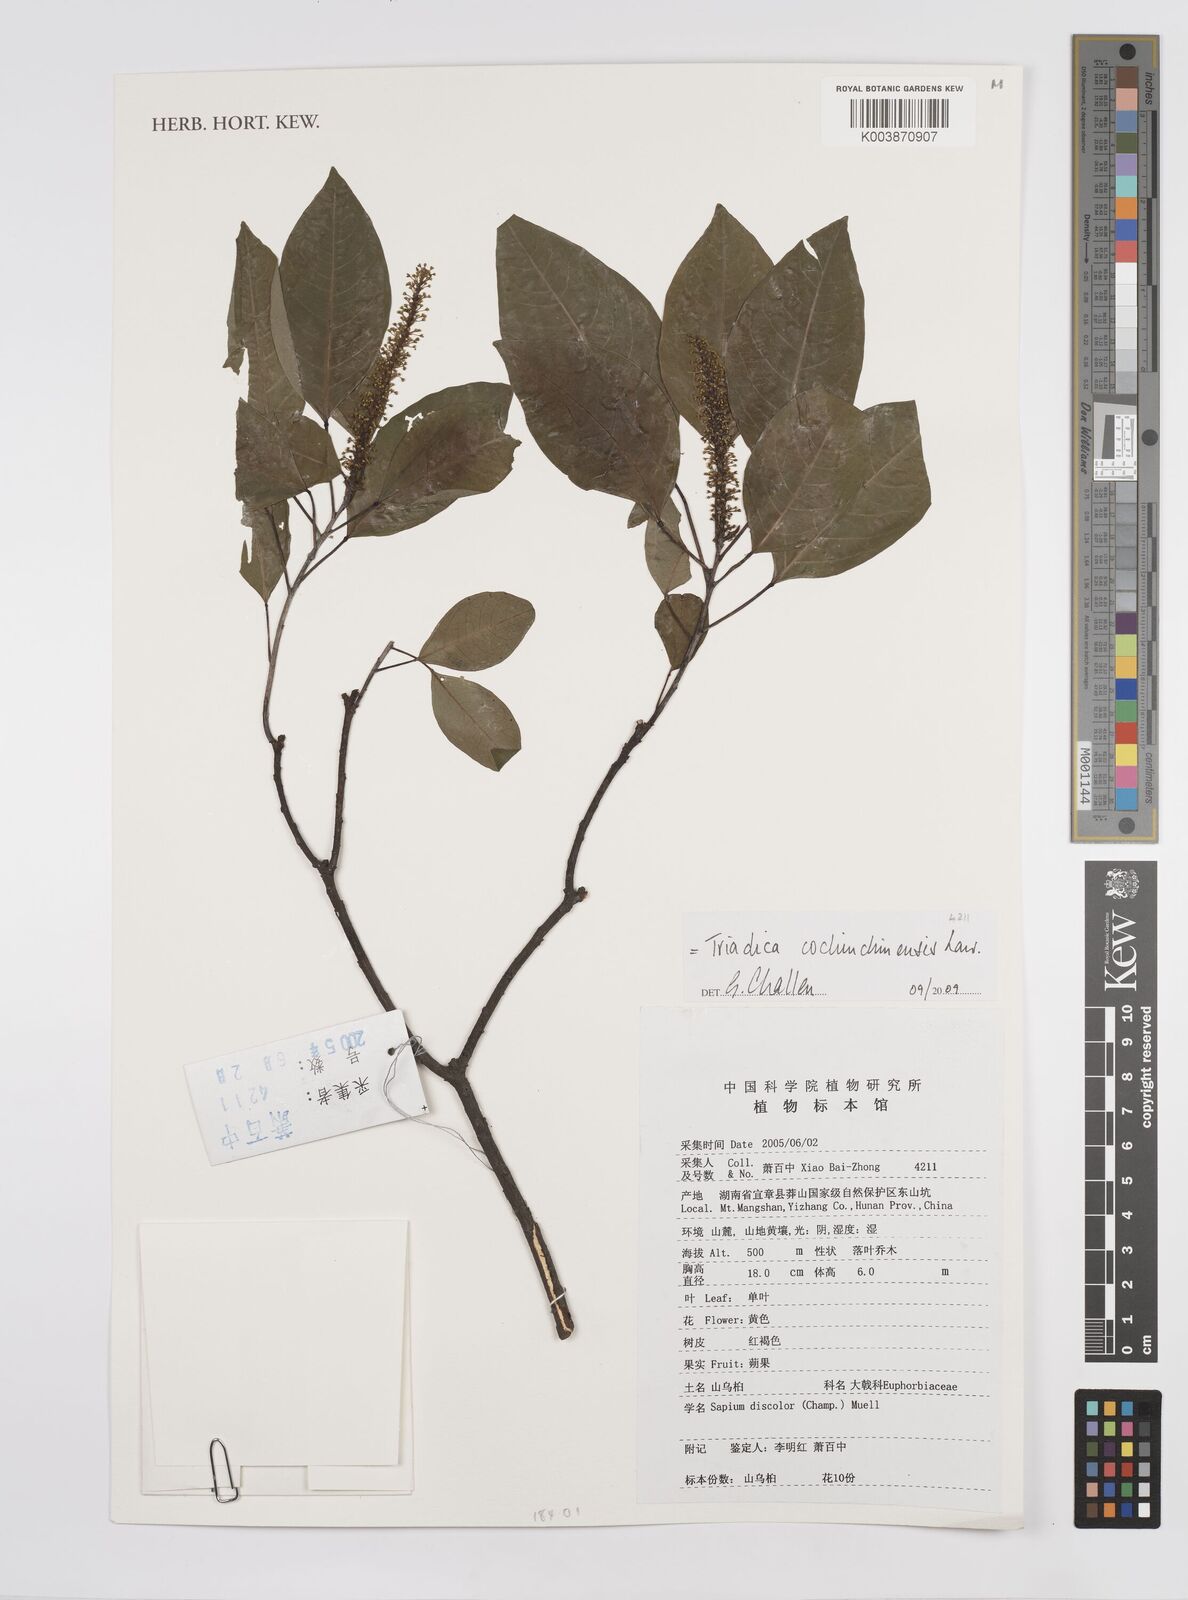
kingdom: Plantae
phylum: Tracheophyta
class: Magnoliopsida
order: Malpighiales
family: Euphorbiaceae
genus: Triadica
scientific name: Triadica cochinchinensis
